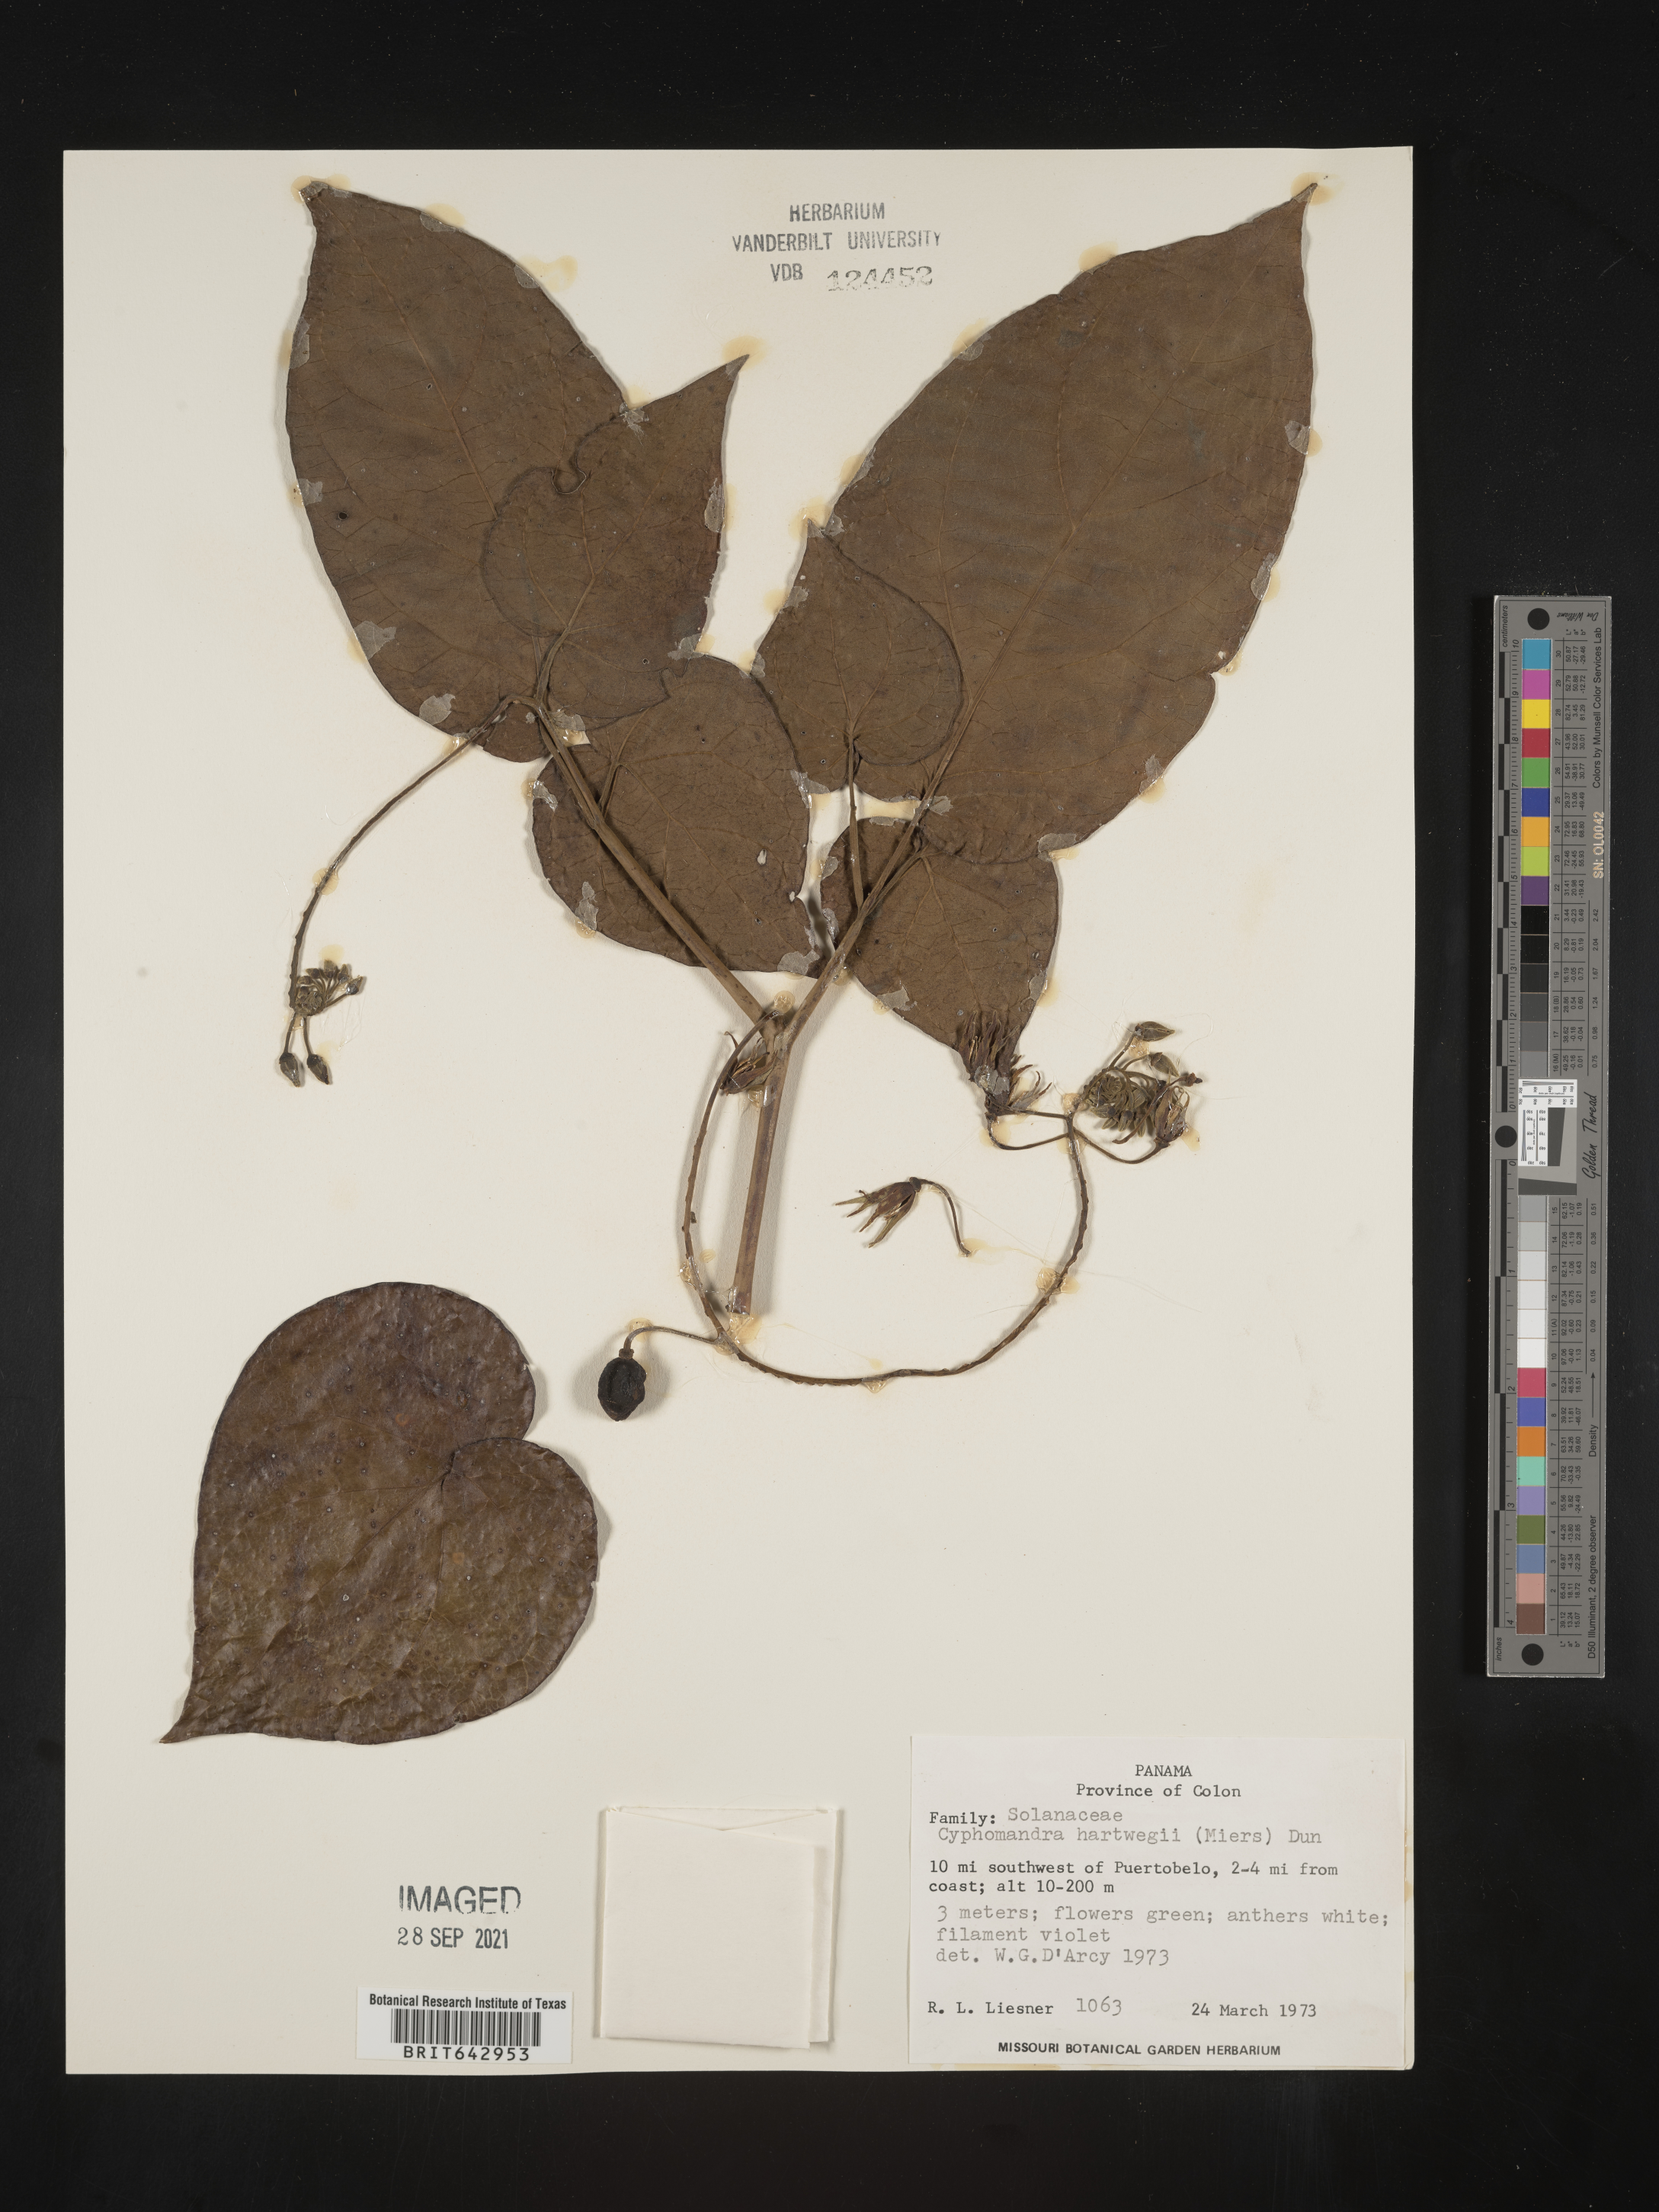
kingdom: Plantae
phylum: Tracheophyta
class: Magnoliopsida
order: Solanales
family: Solanaceae
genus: Solanum
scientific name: Solanum
